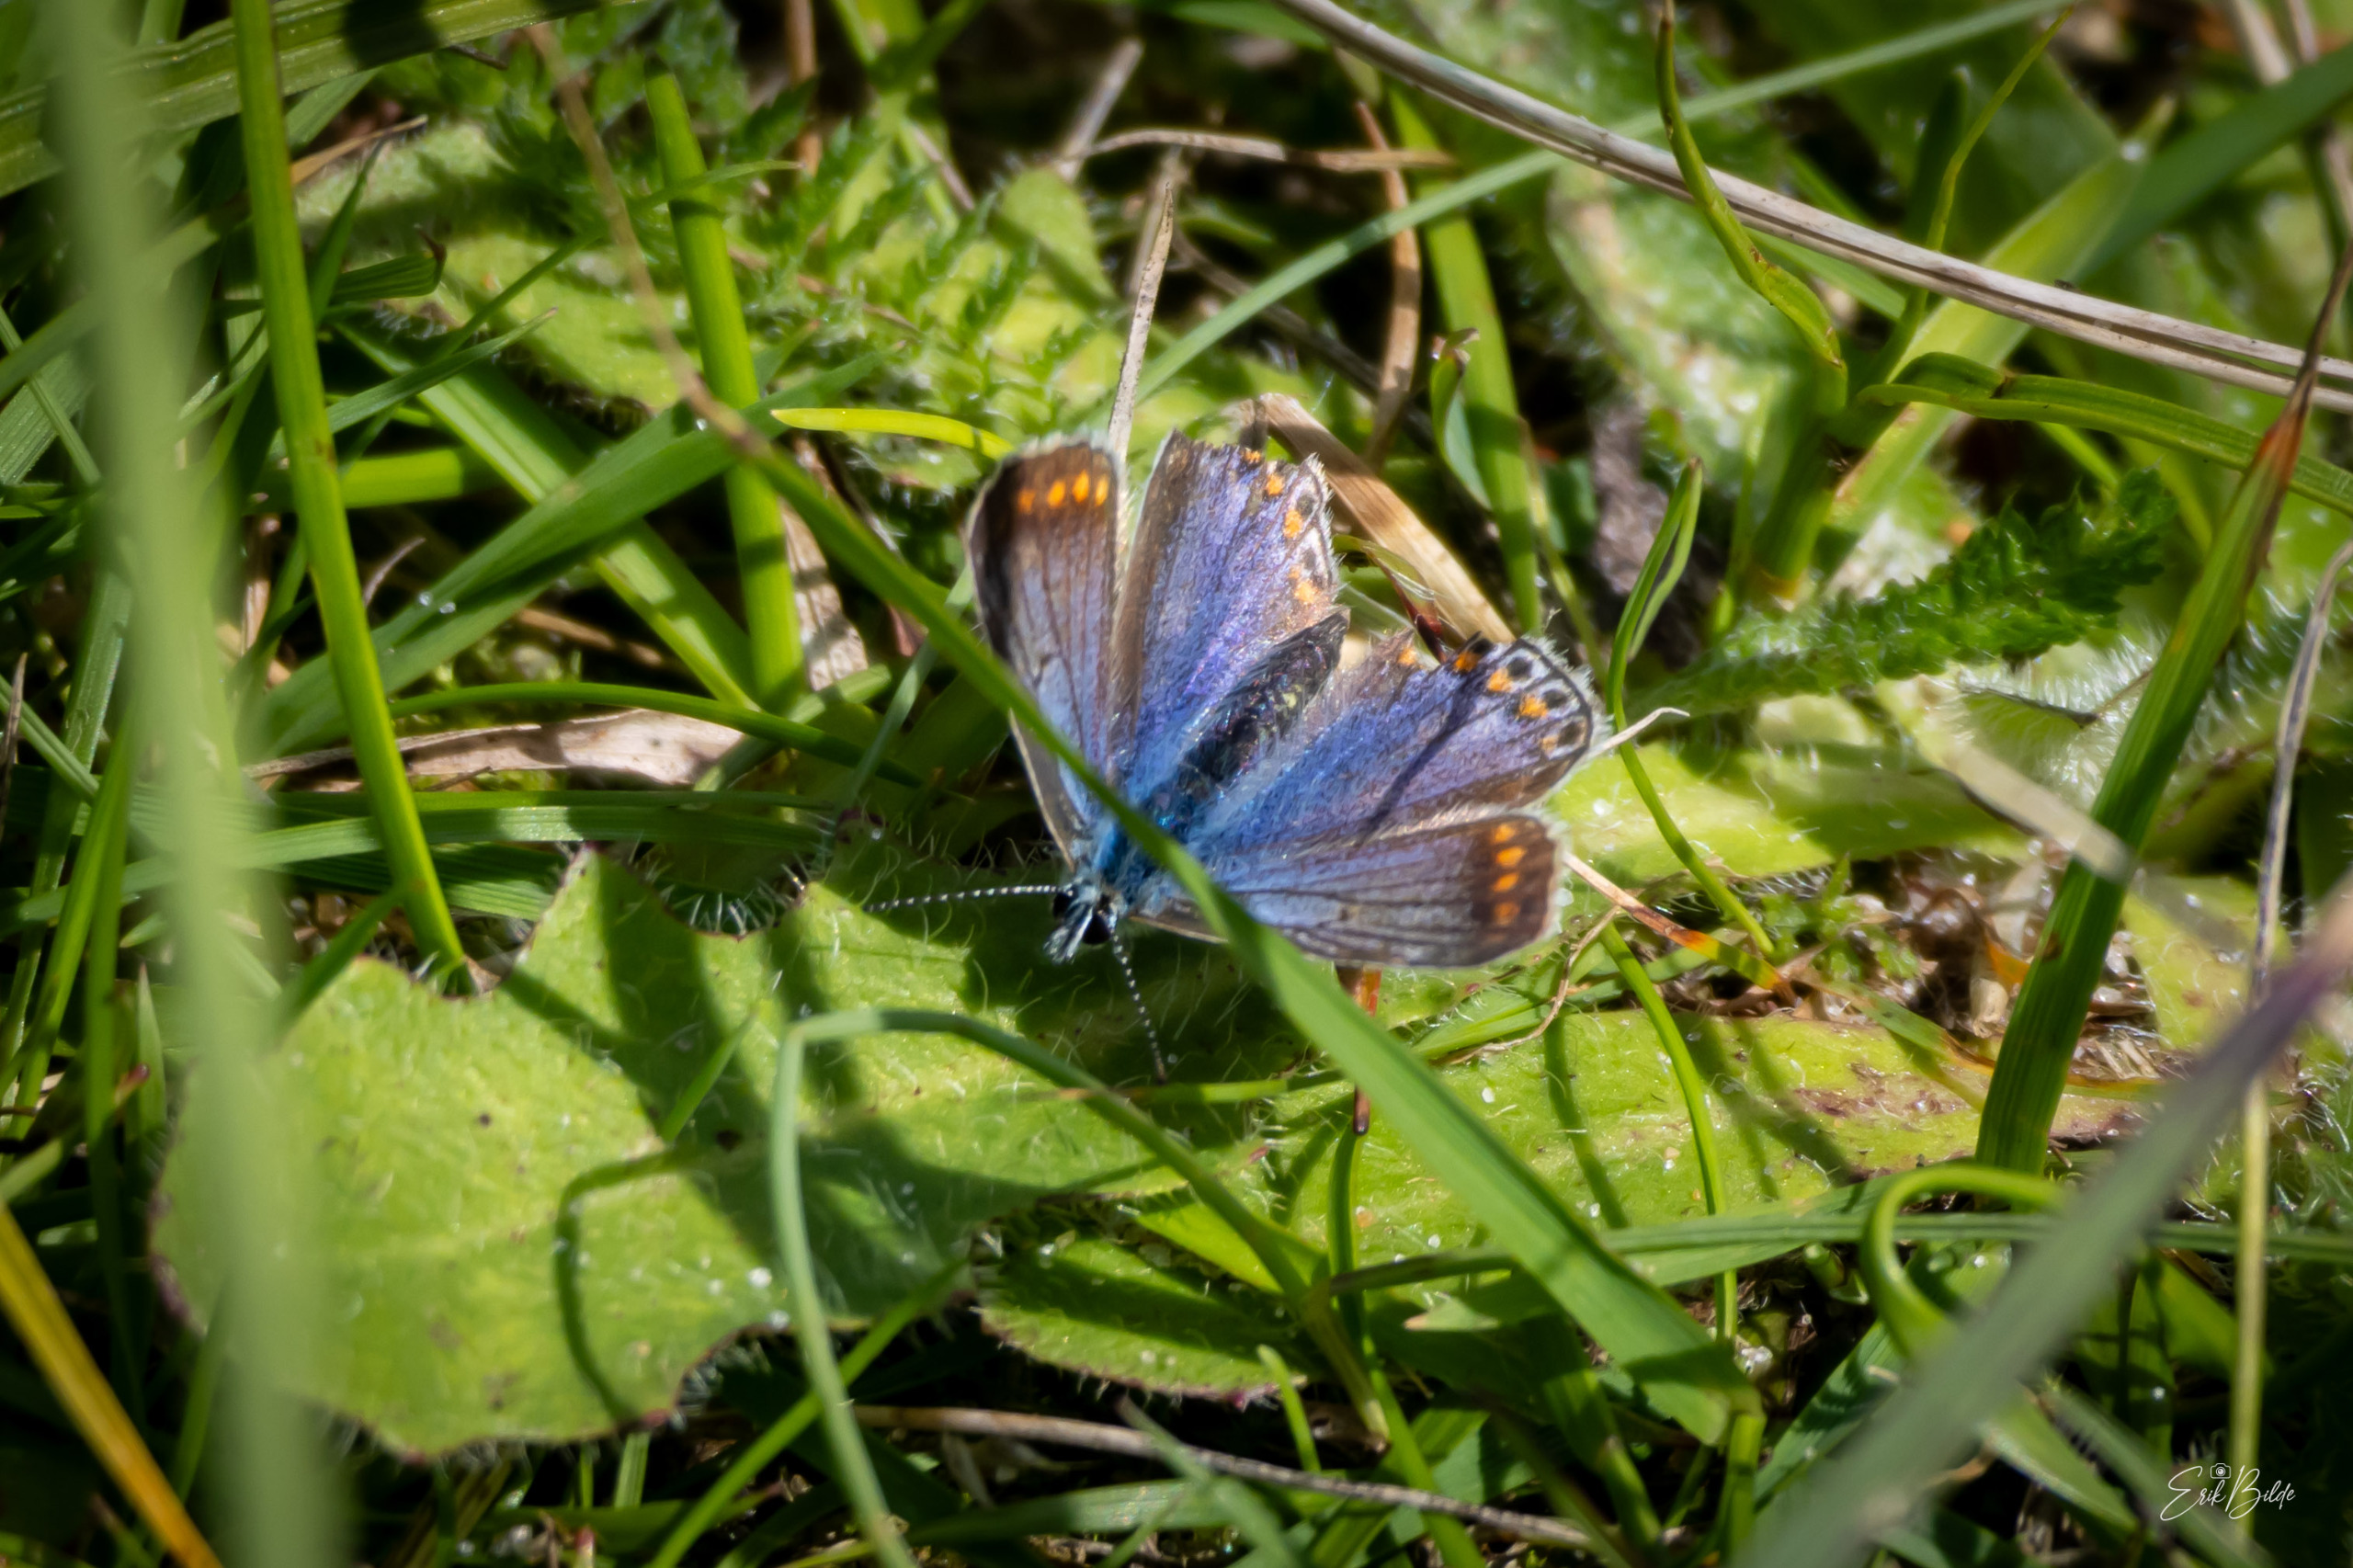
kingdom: Animalia
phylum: Arthropoda
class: Insecta
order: Lepidoptera
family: Lycaenidae
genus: Polyommatus
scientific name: Polyommatus icarus
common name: Almindelig blåfugl
